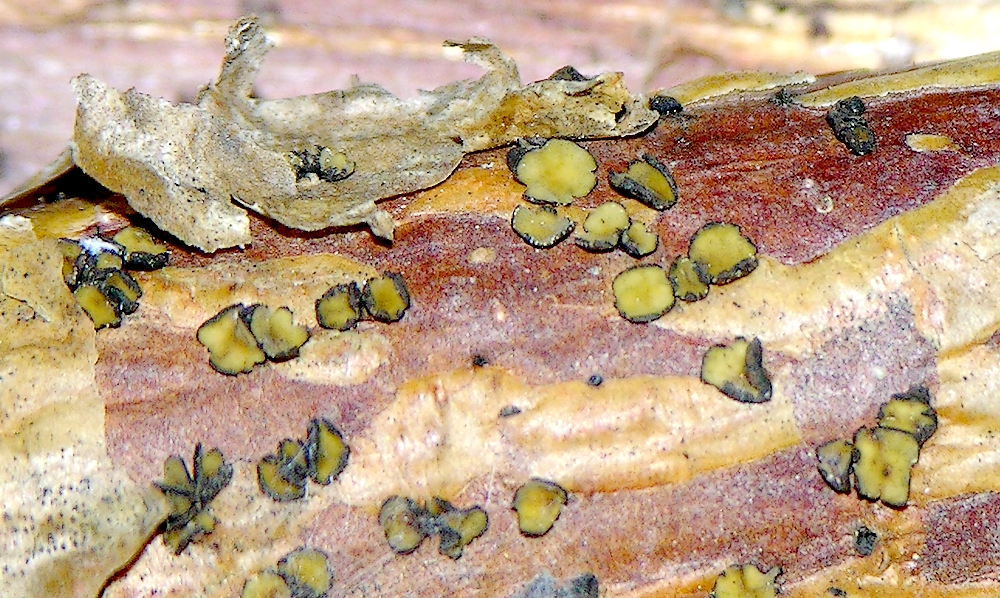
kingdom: Fungi
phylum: Ascomycota
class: Leotiomycetes
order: Helotiales
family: Cenangiaceae
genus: Cenangium
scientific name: Cenangium ferruginosum
